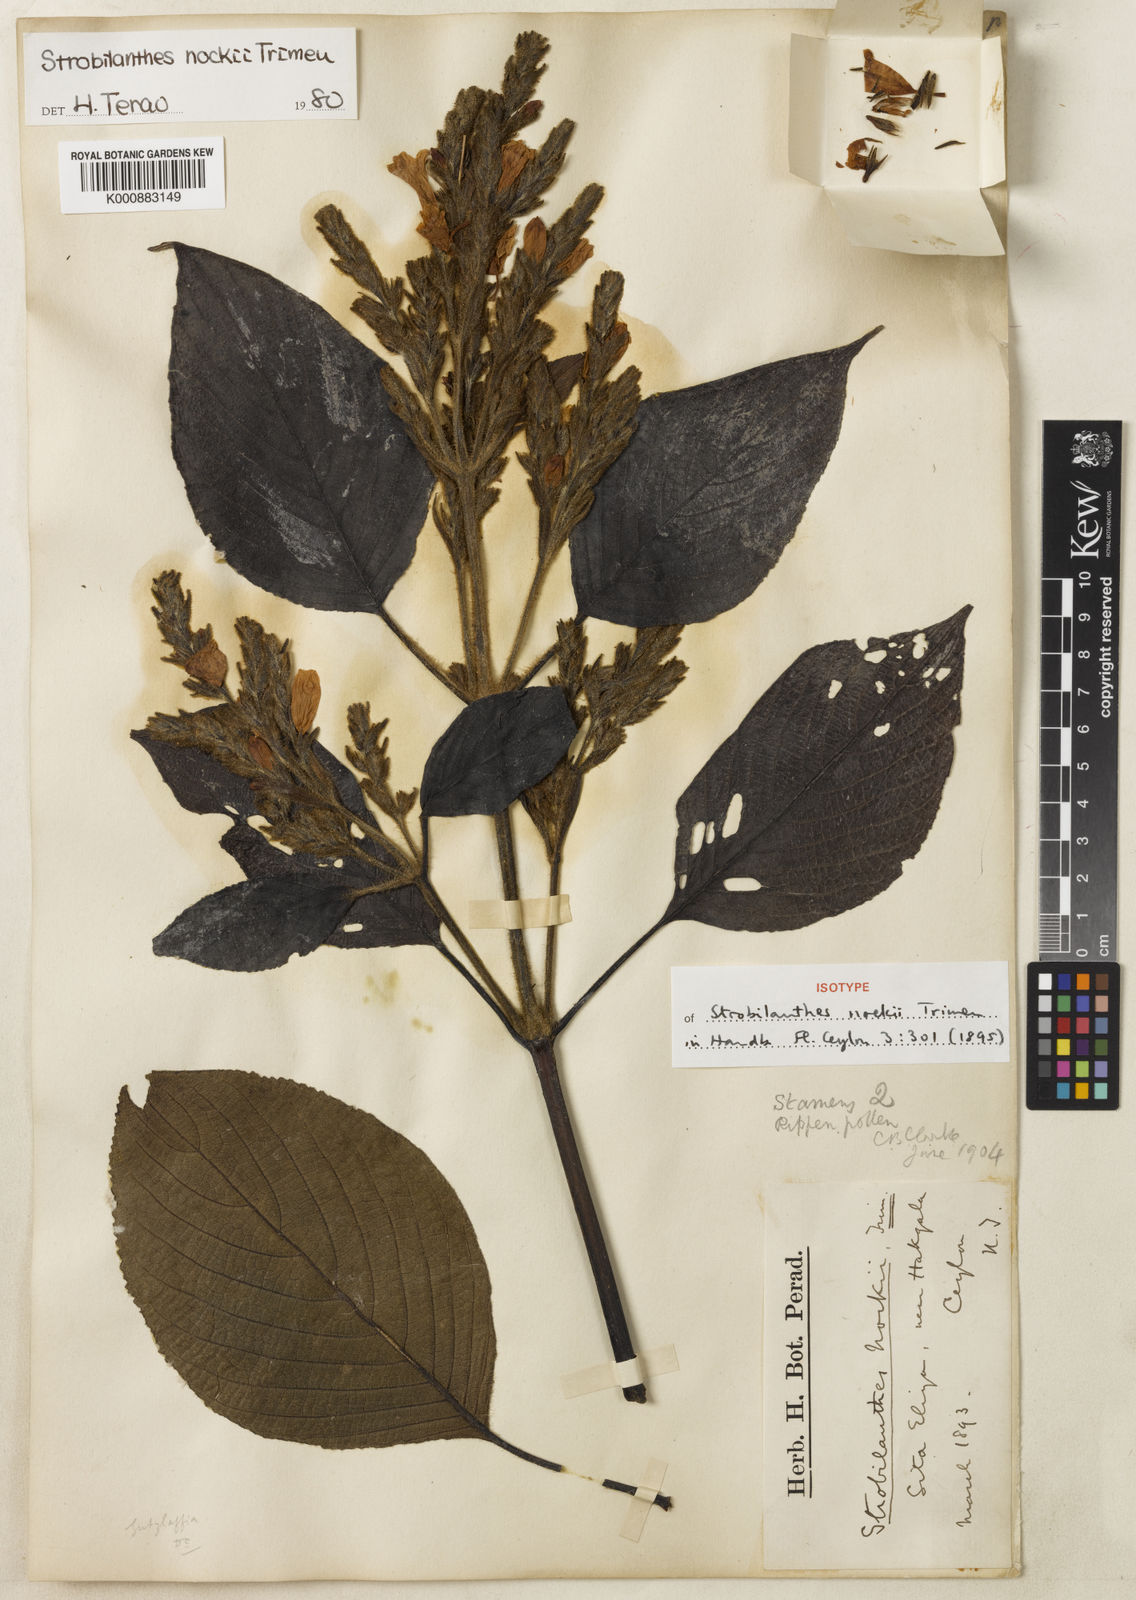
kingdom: Plantae
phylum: Tracheophyta
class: Magnoliopsida
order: Lamiales
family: Acanthaceae
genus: Strobilanthes
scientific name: Strobilanthes
